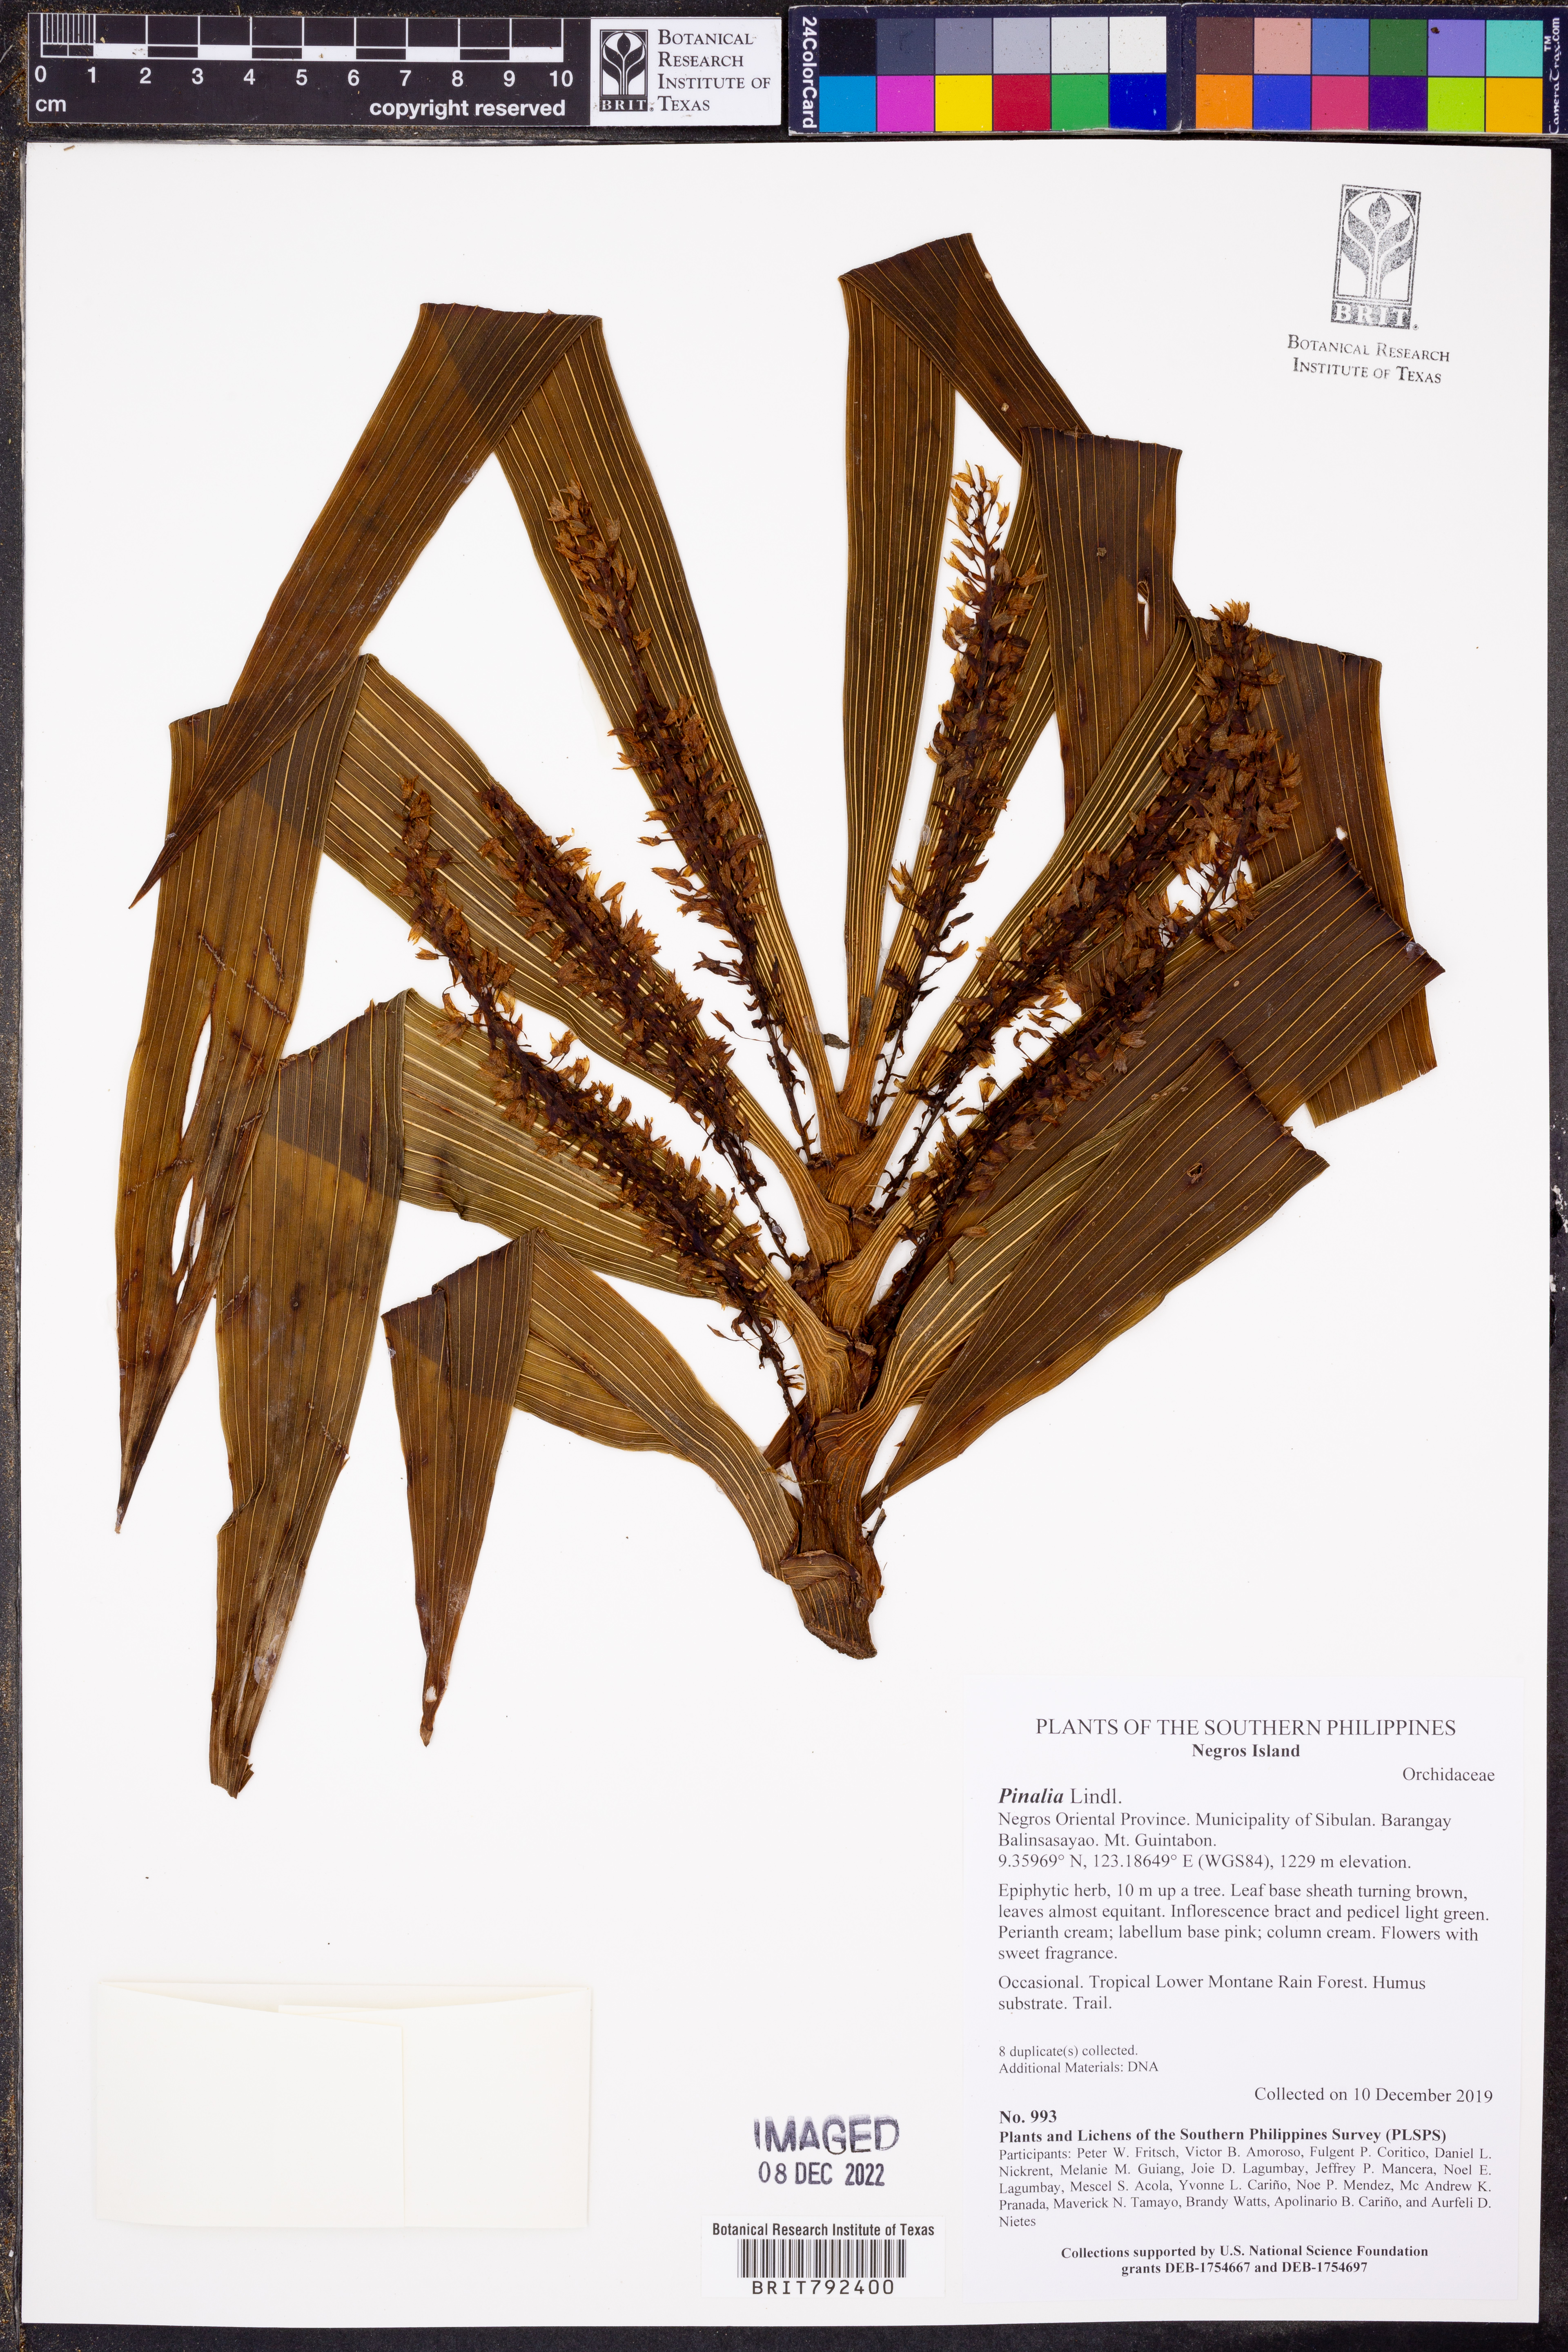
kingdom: Plantae
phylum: Tracheophyta
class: Liliopsida
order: Asparagales
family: Orchidaceae
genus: Pinalia
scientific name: Pinalia
